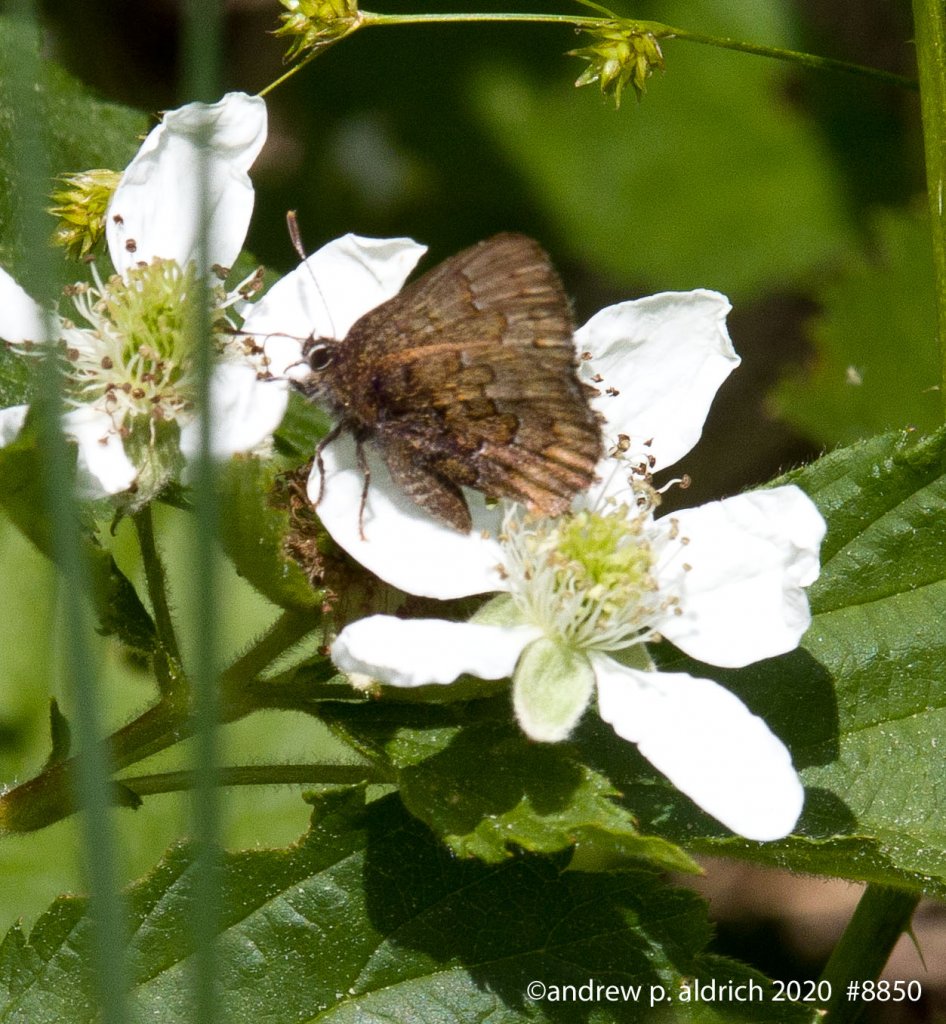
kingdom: Animalia
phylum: Arthropoda
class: Insecta
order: Lepidoptera
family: Lycaenidae
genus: Incisalia
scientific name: Incisalia niphon
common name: Eastern Pine Elfin
